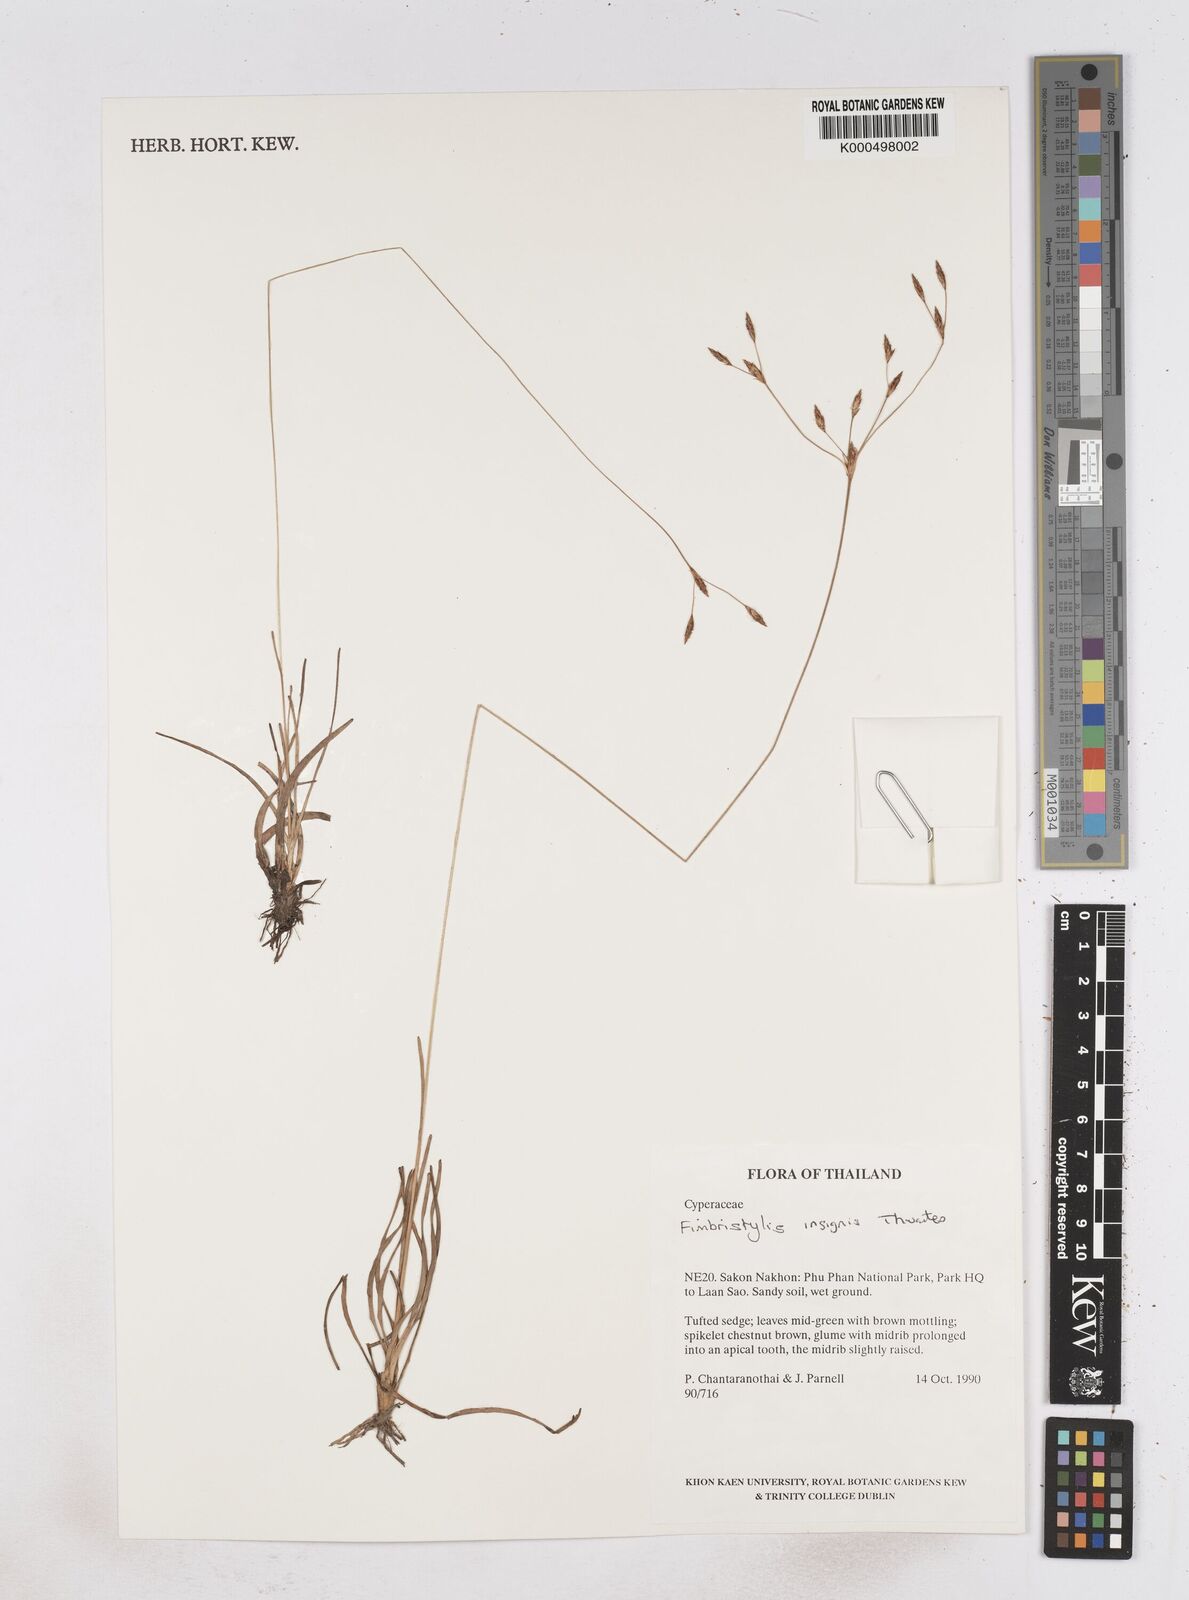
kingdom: Plantae
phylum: Tracheophyta
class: Liliopsida
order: Poales
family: Cyperaceae
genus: Fimbristylis
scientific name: Fimbristylis insignis
